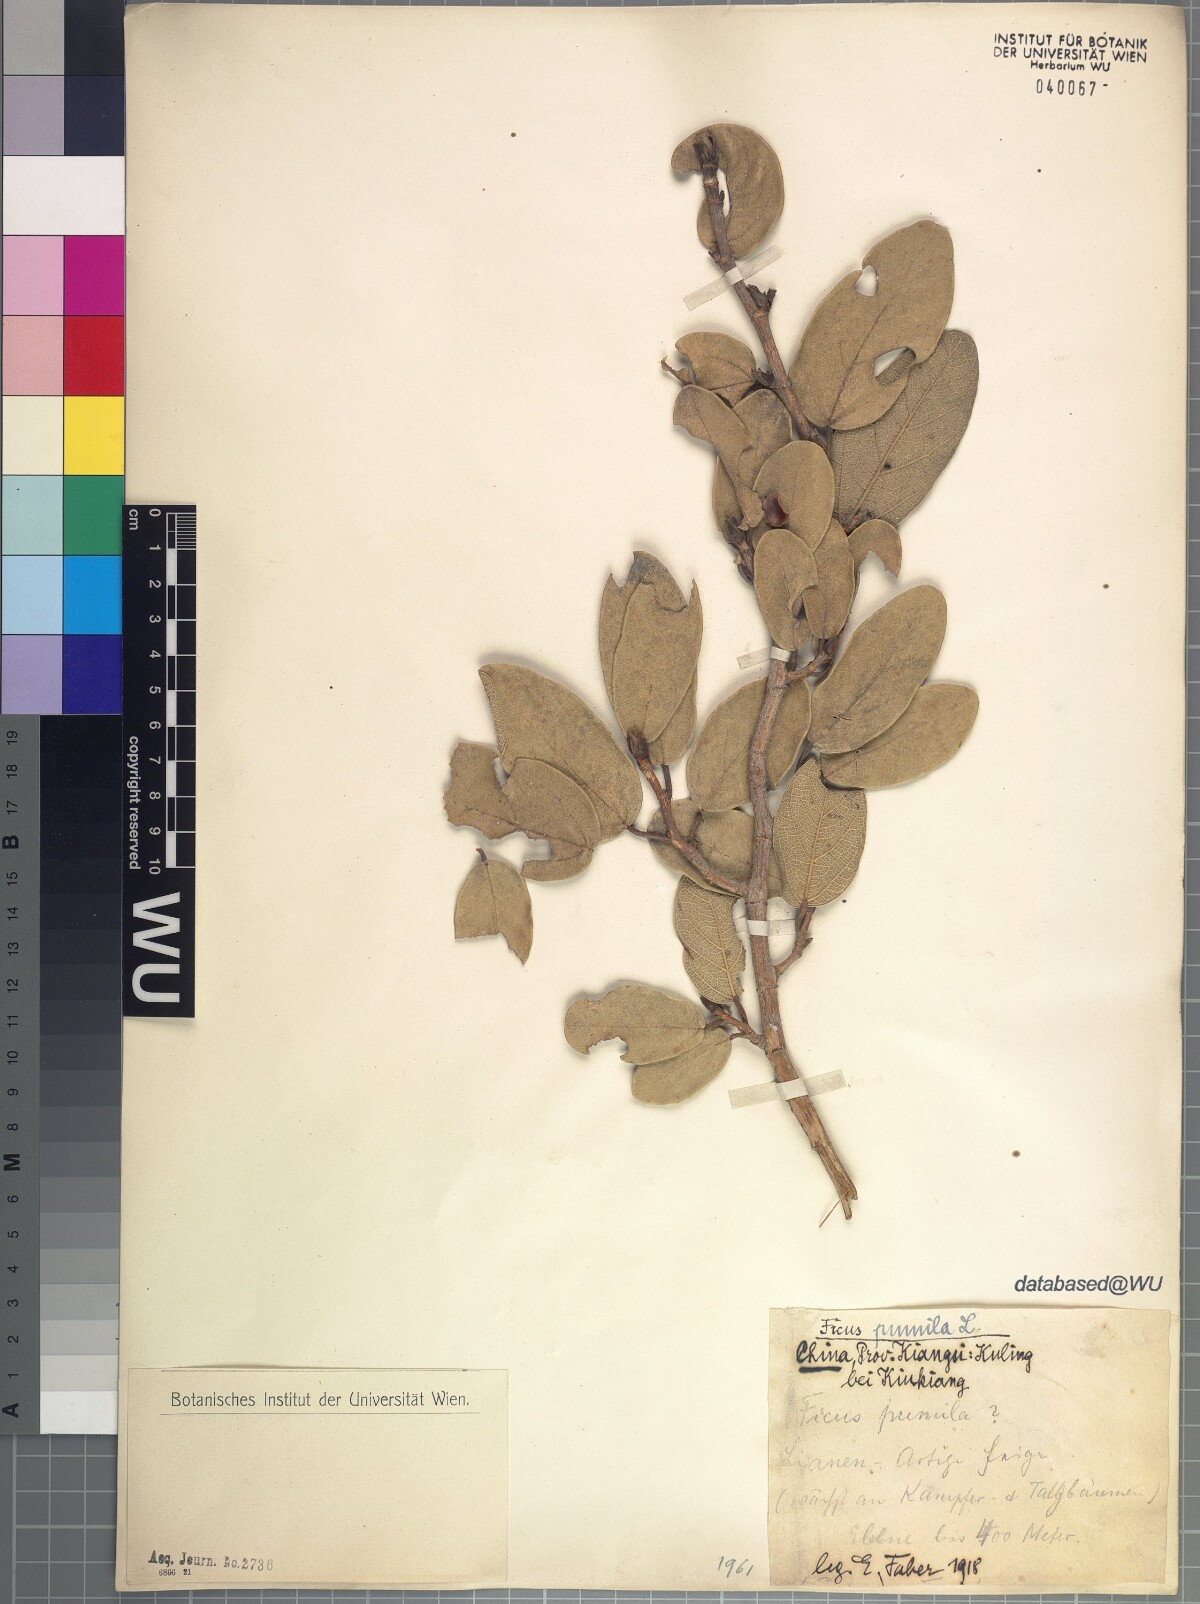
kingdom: Plantae
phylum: Tracheophyta
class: Magnoliopsida
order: Rosales
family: Moraceae
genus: Ficus
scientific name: Ficus pumila
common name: Climbingfig
